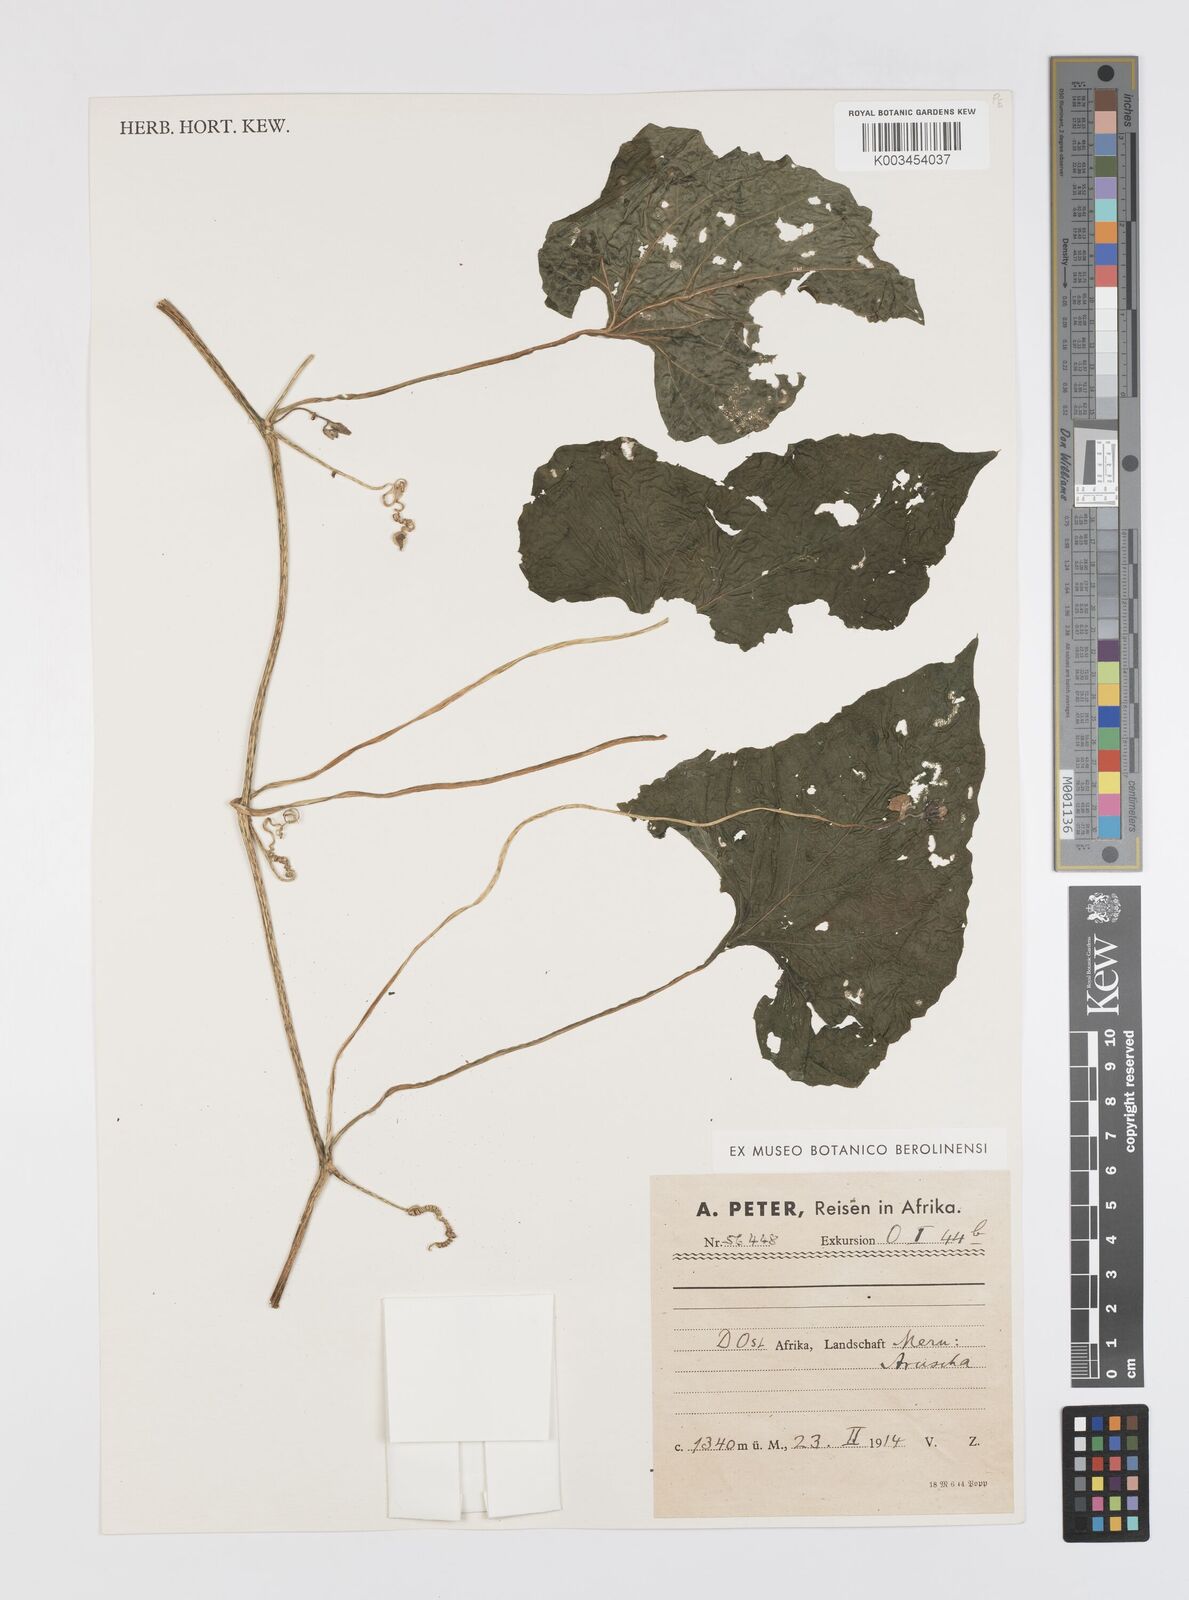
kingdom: Plantae
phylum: Tracheophyta
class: Magnoliopsida
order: Cucurbitales
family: Cucurbitaceae
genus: Momordica
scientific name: Momordica foetida
